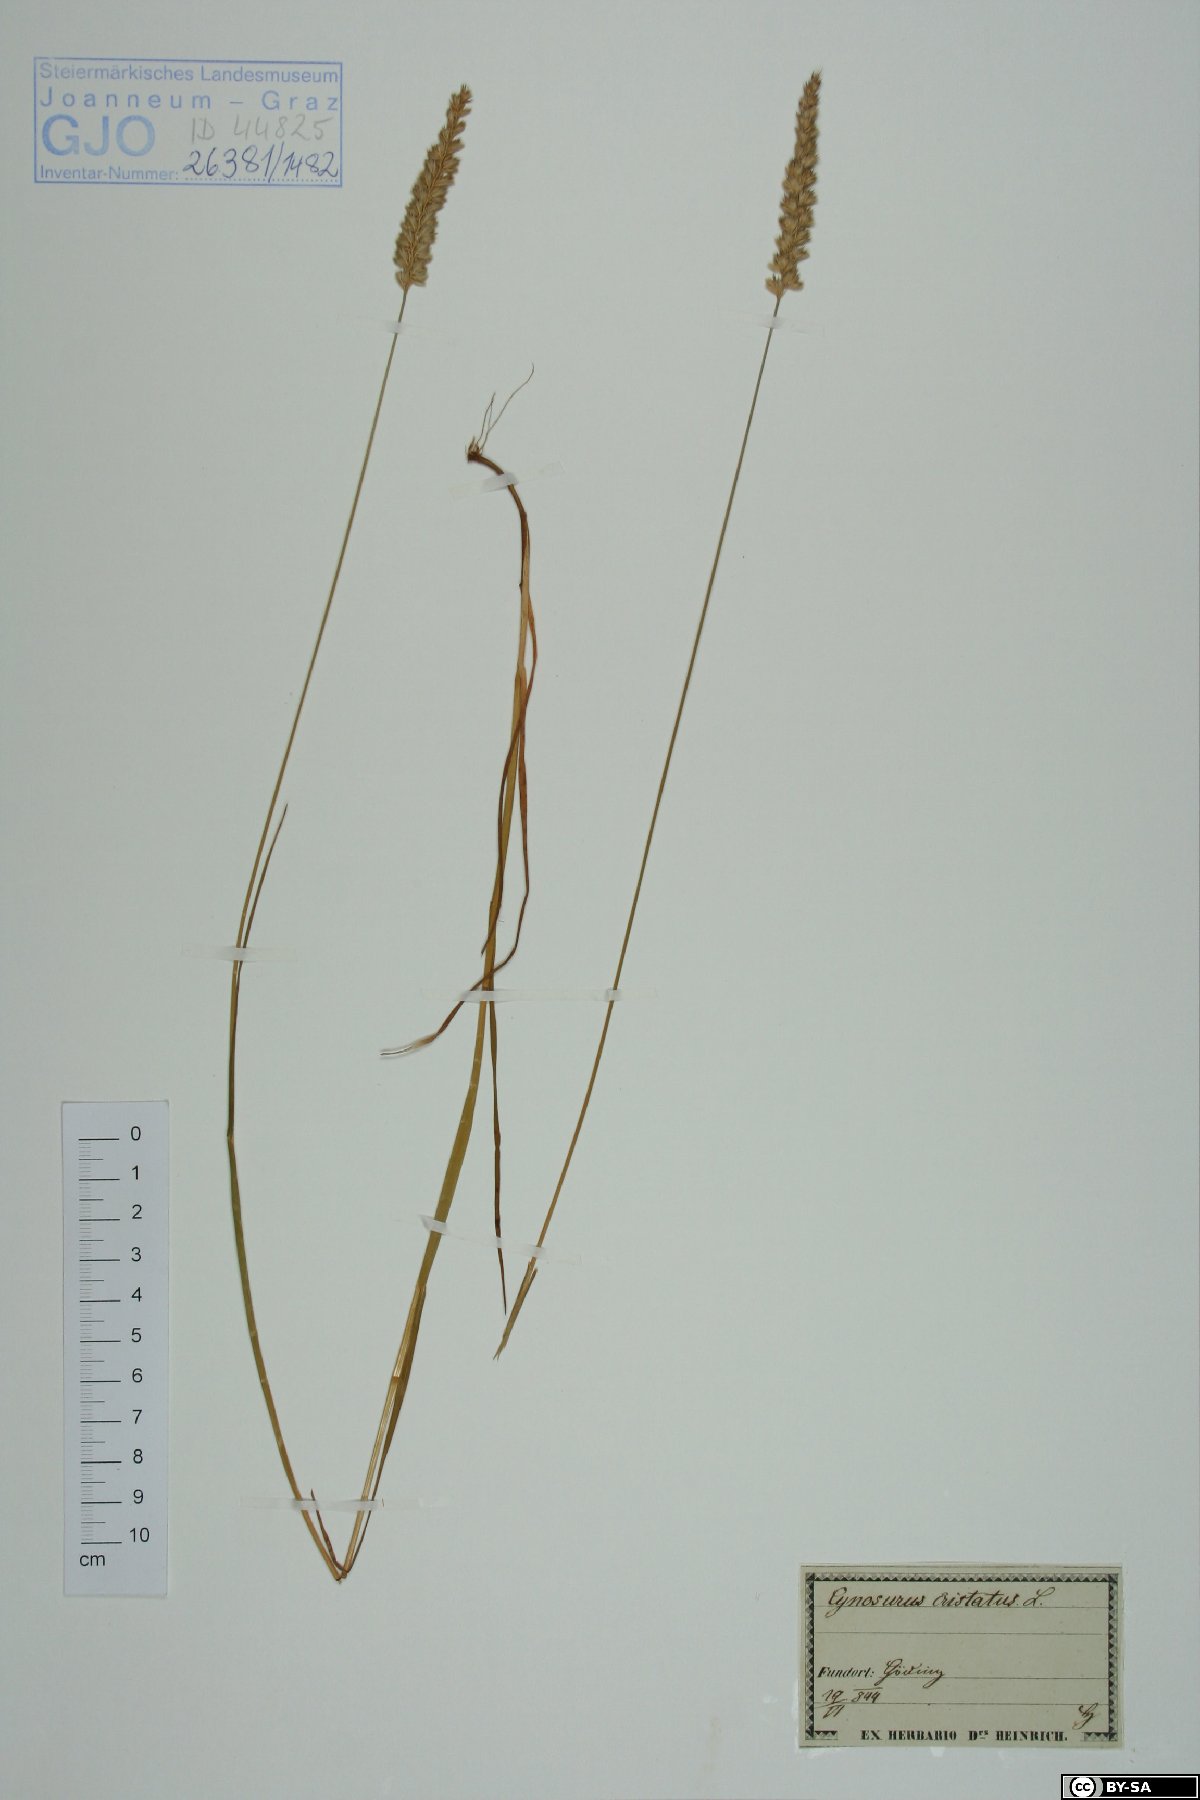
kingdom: Plantae
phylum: Tracheophyta
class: Liliopsida
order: Poales
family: Poaceae
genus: Cynosurus
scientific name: Cynosurus cristatus
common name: Crested dog's-tail
